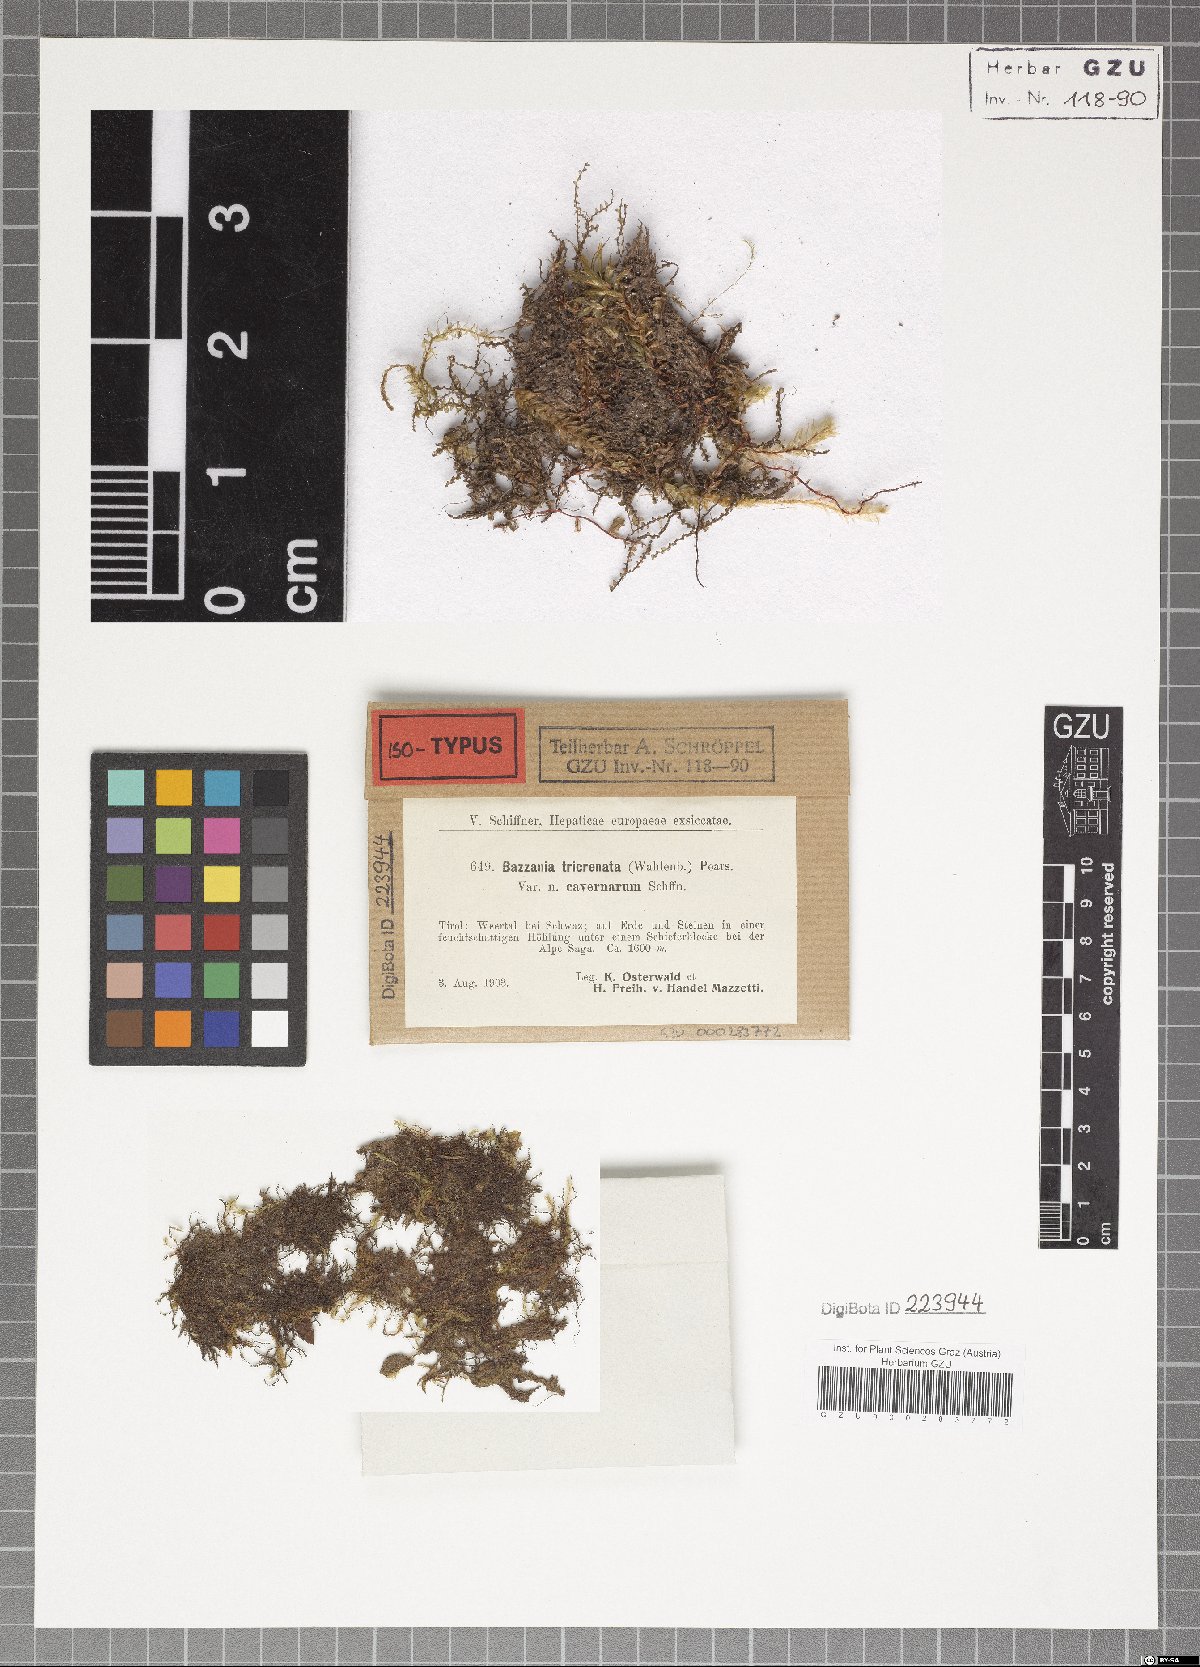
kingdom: Plantae
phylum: Marchantiophyta
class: Jungermanniopsida
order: Jungermanniales
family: Lepidoziaceae
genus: Bazzania
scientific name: Bazzania tricrenata
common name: Lesser whipwort
